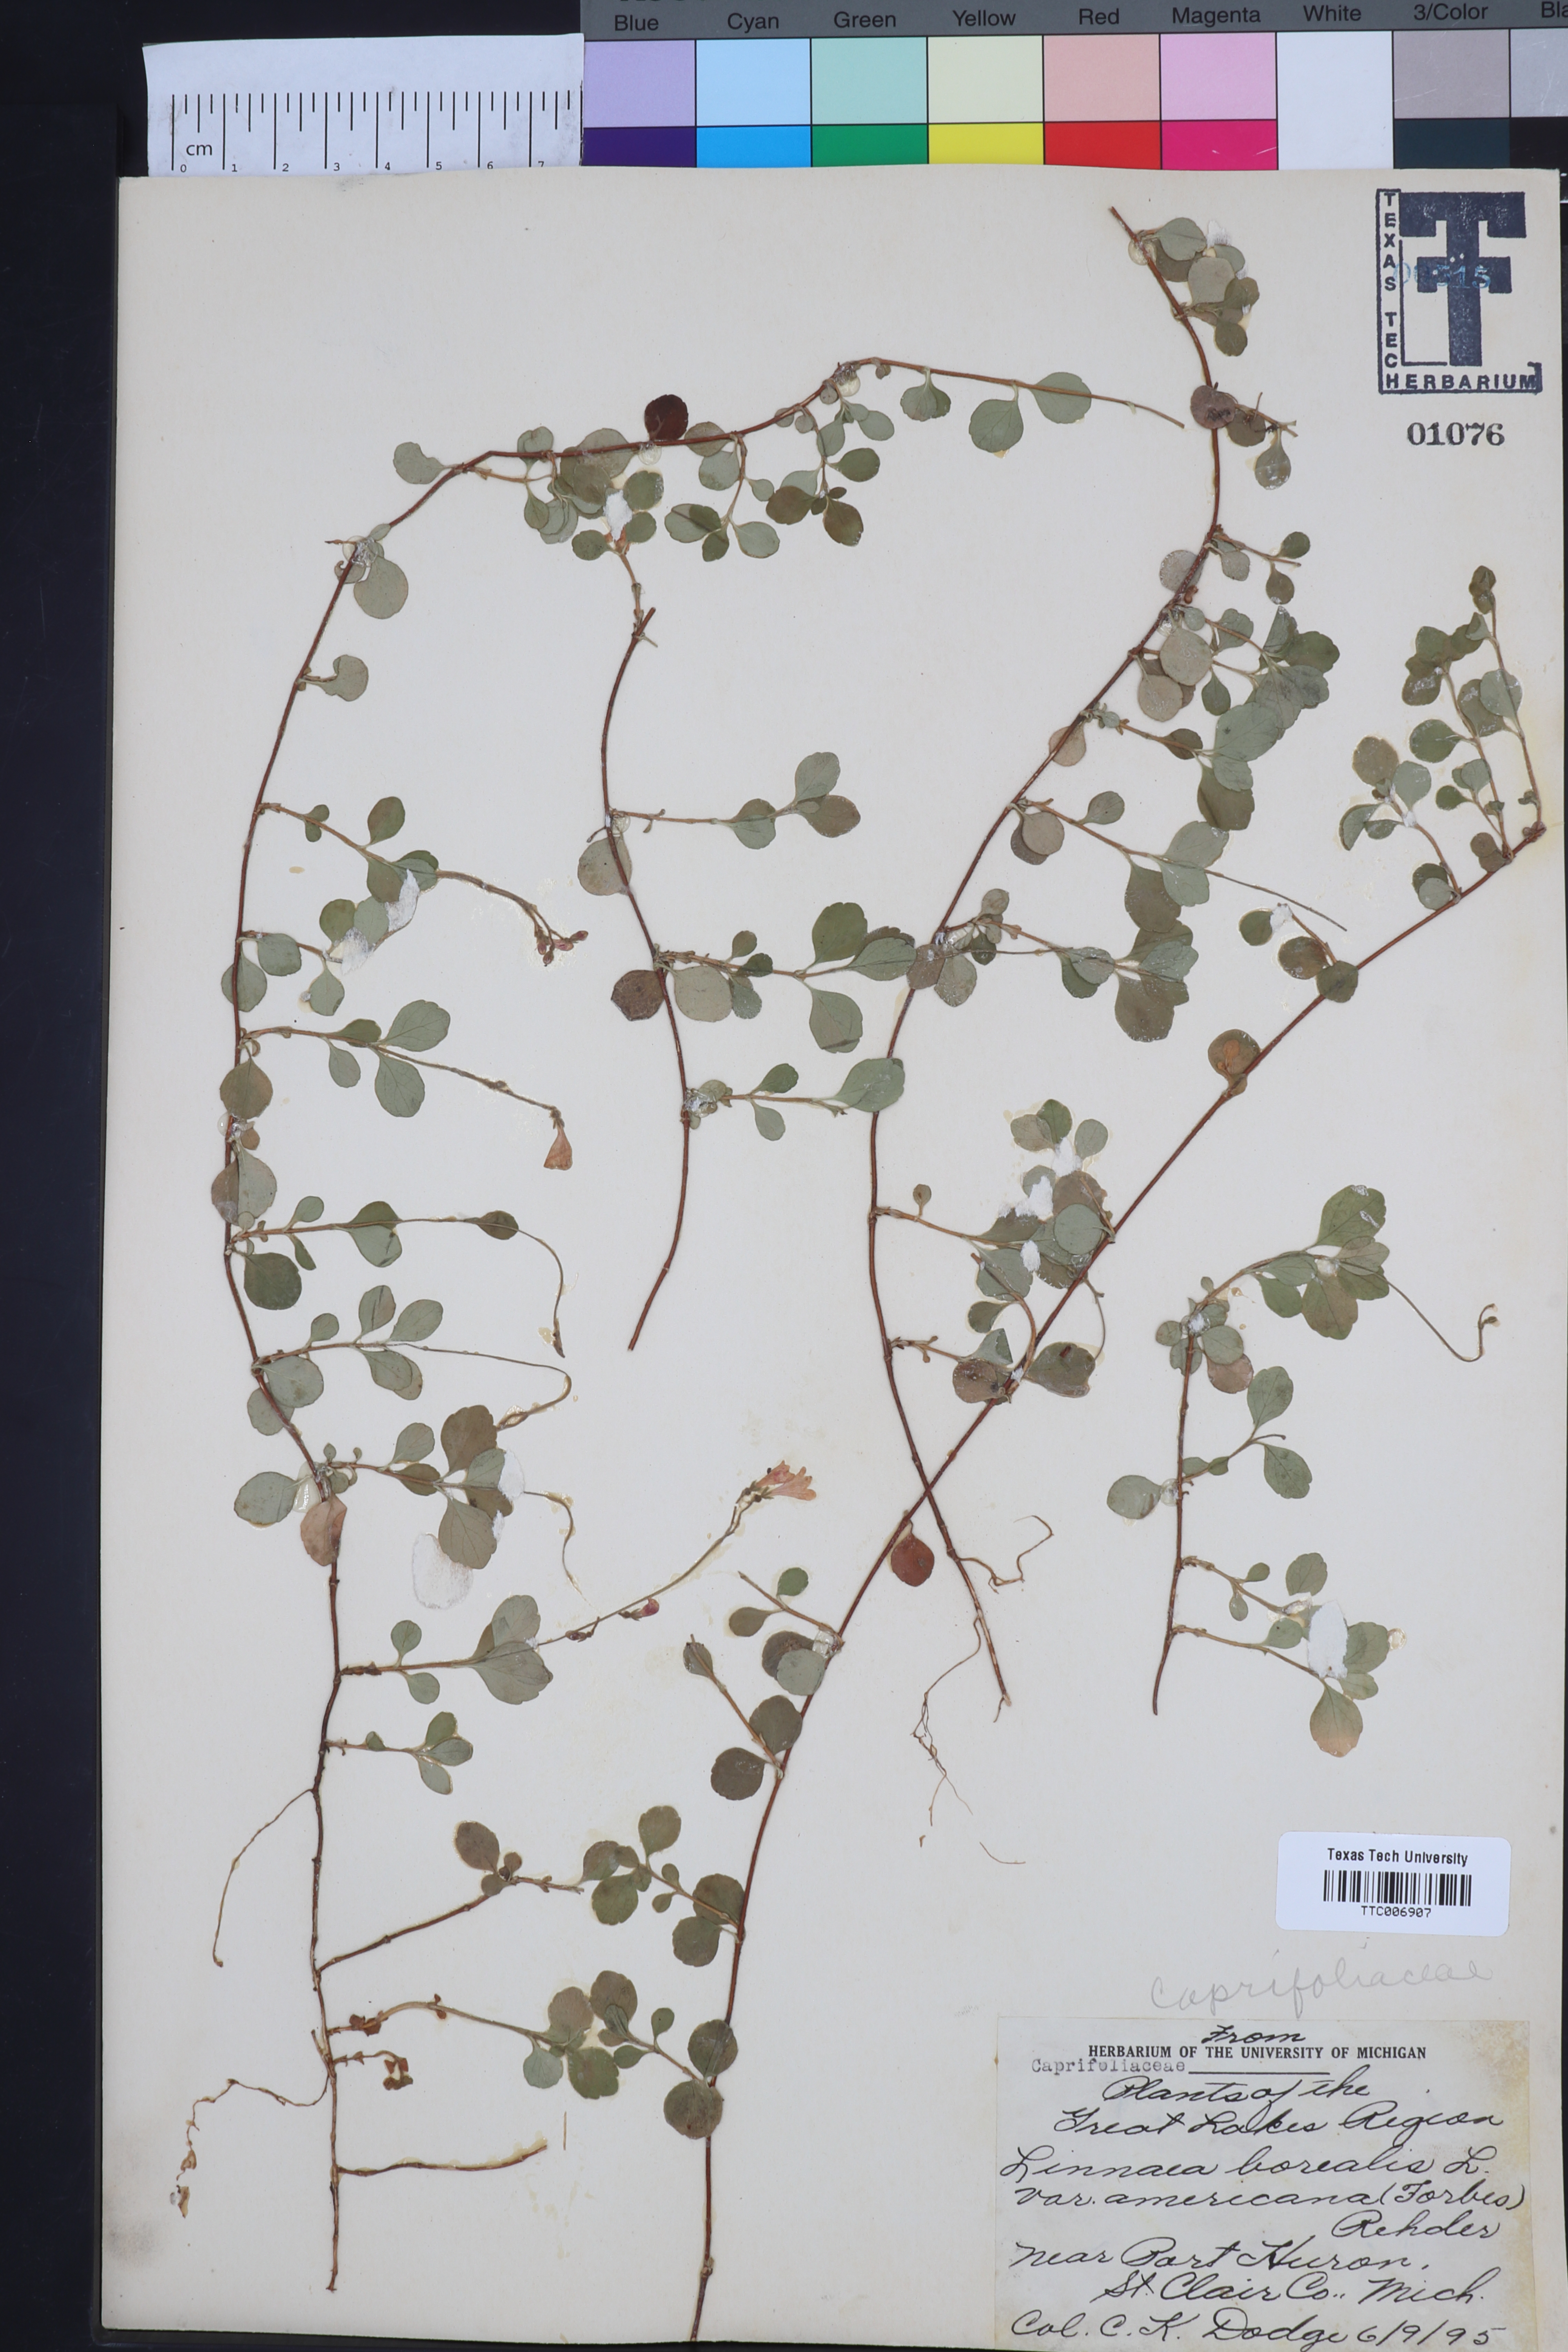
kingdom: Plantae
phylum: Tracheophyta
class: Magnoliopsida
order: Dipsacales
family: Caprifoliaceae
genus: Linnaea
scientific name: Linnaea borealis
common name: Twinflower
